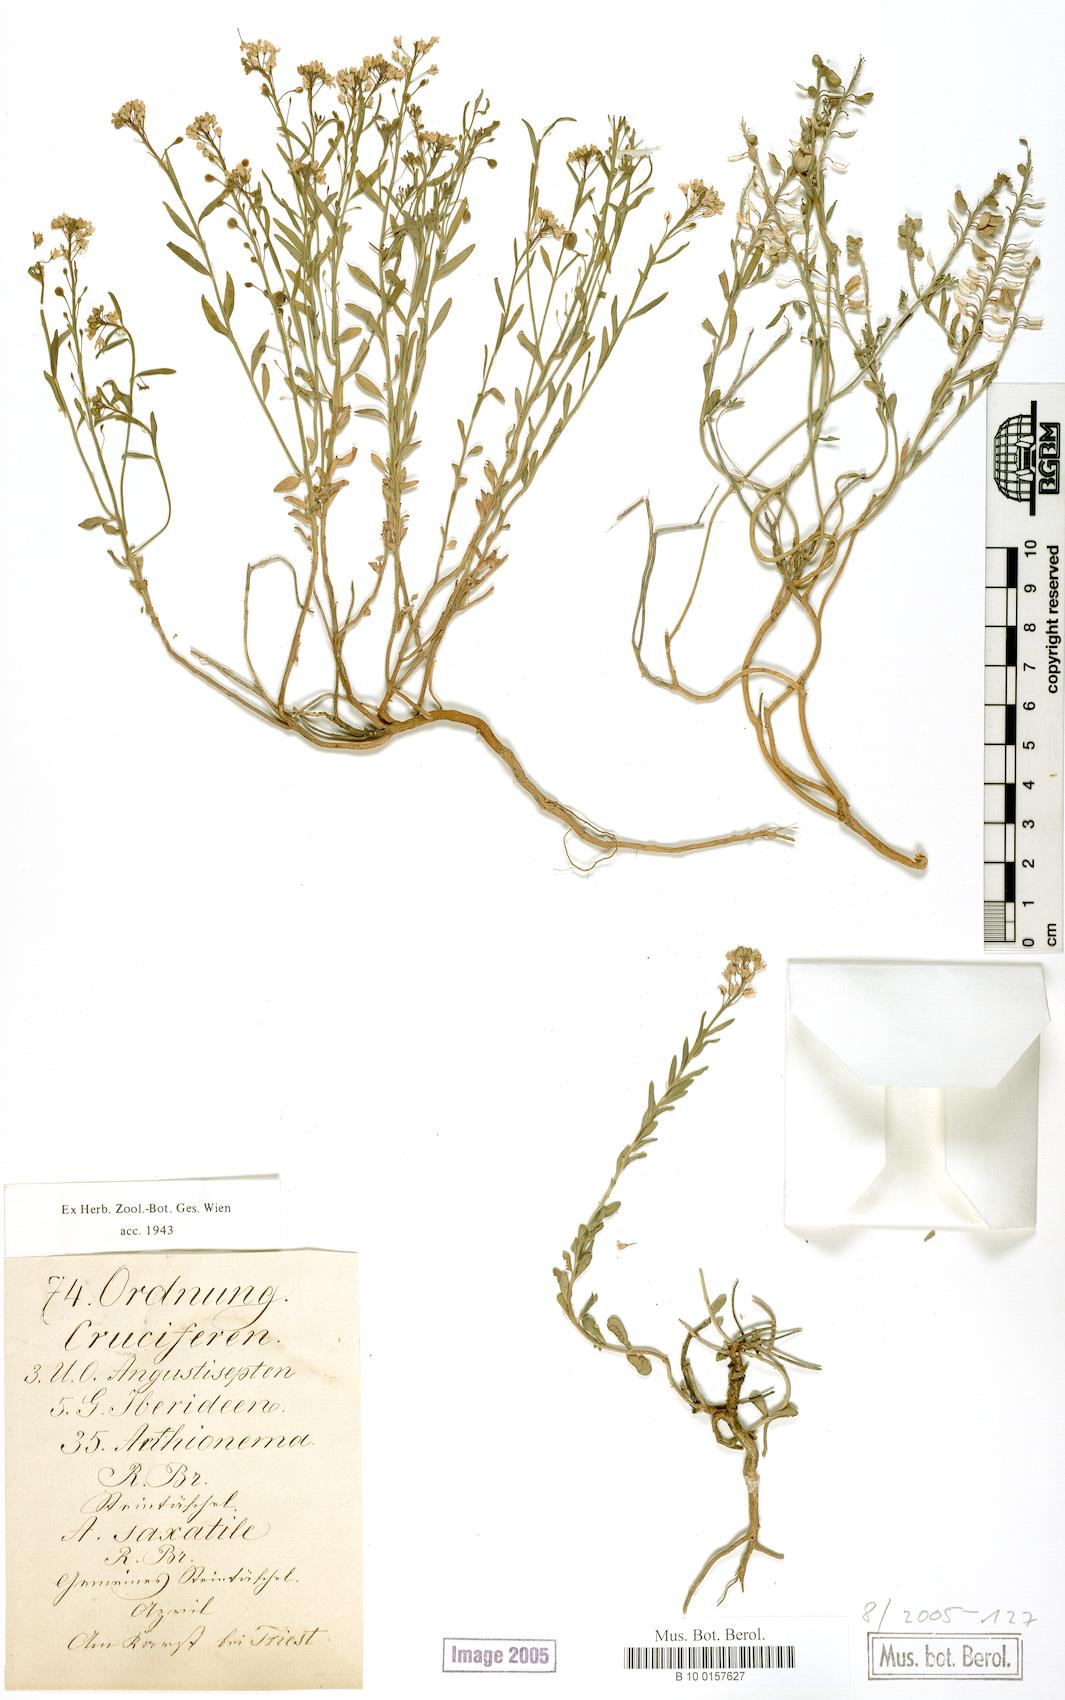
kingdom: Plantae
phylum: Tracheophyta
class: Magnoliopsida
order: Brassicales
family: Brassicaceae
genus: Aethionema
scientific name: Aethionema saxatile
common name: Burnt candytuft
